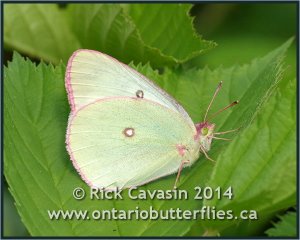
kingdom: Animalia
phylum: Arthropoda
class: Insecta
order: Lepidoptera
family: Pieridae
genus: Colias
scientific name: Colias interior
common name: Pink-edged Sulphur
